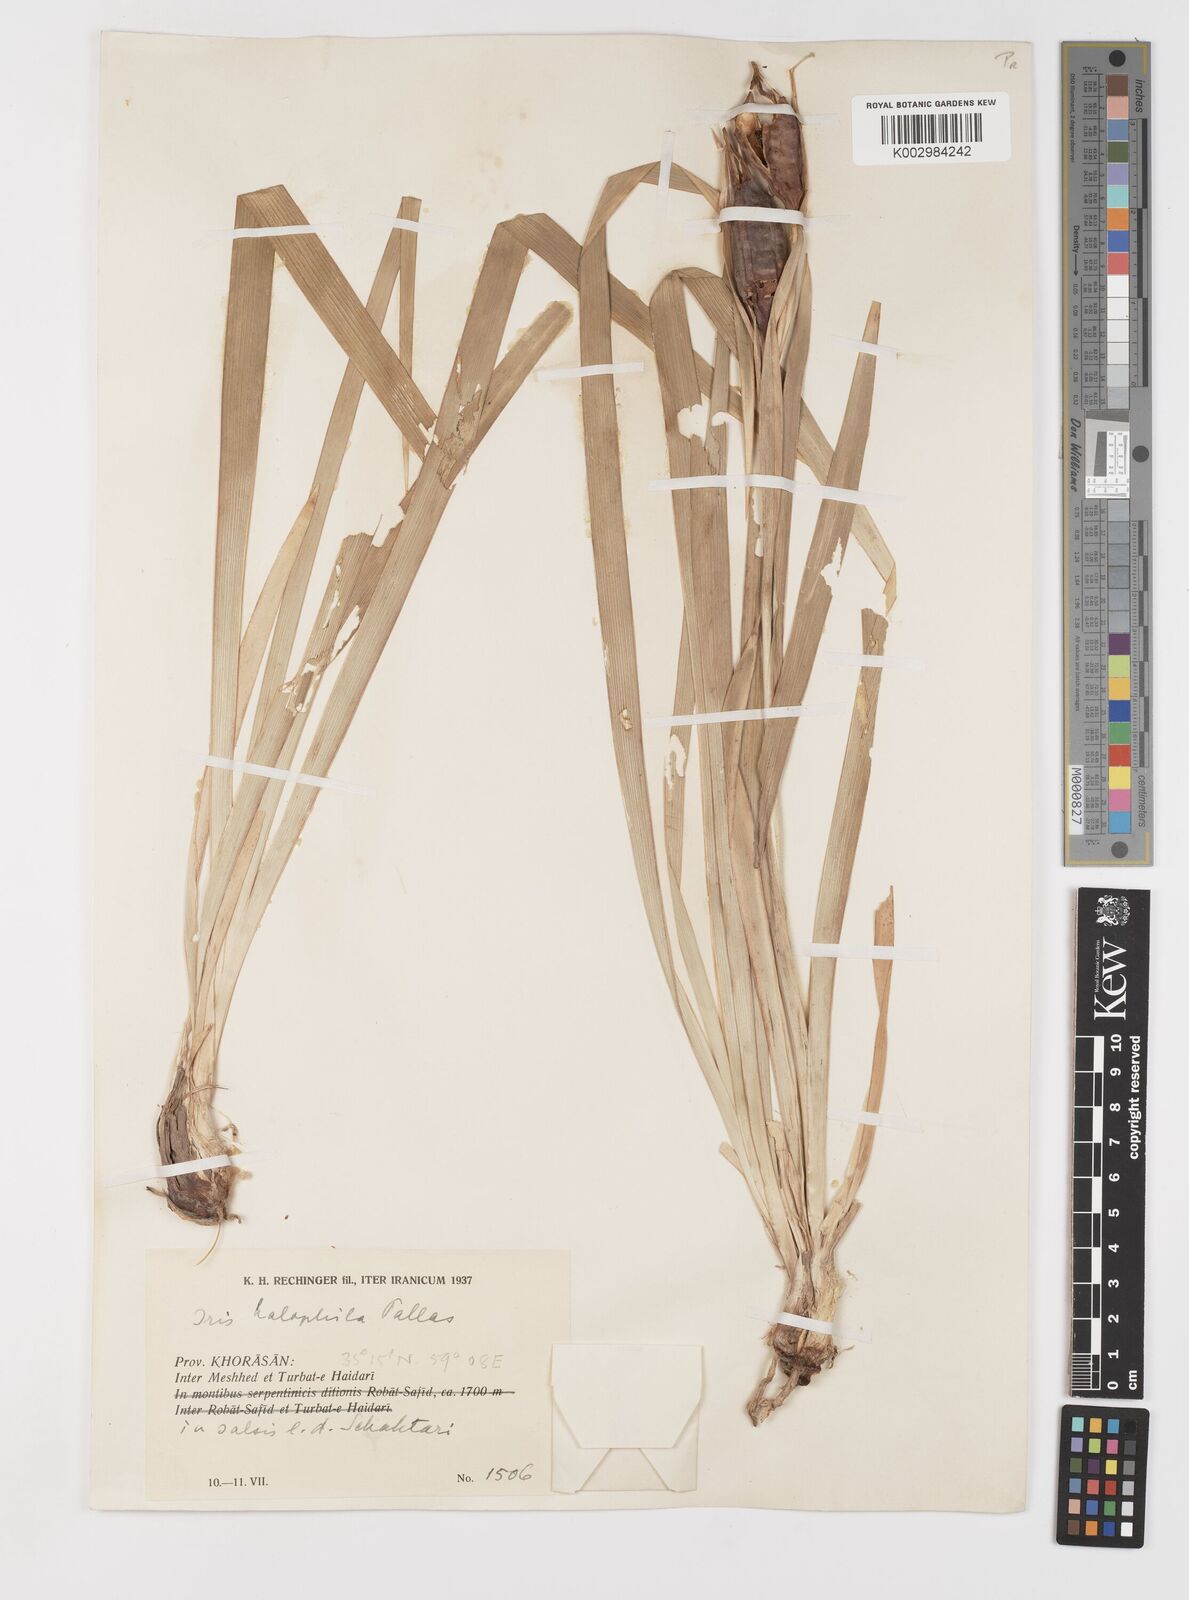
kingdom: Plantae
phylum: Tracheophyta
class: Liliopsida
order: Asparagales
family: Iridaceae
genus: Iris
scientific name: Iris spuria
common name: Blue iris
